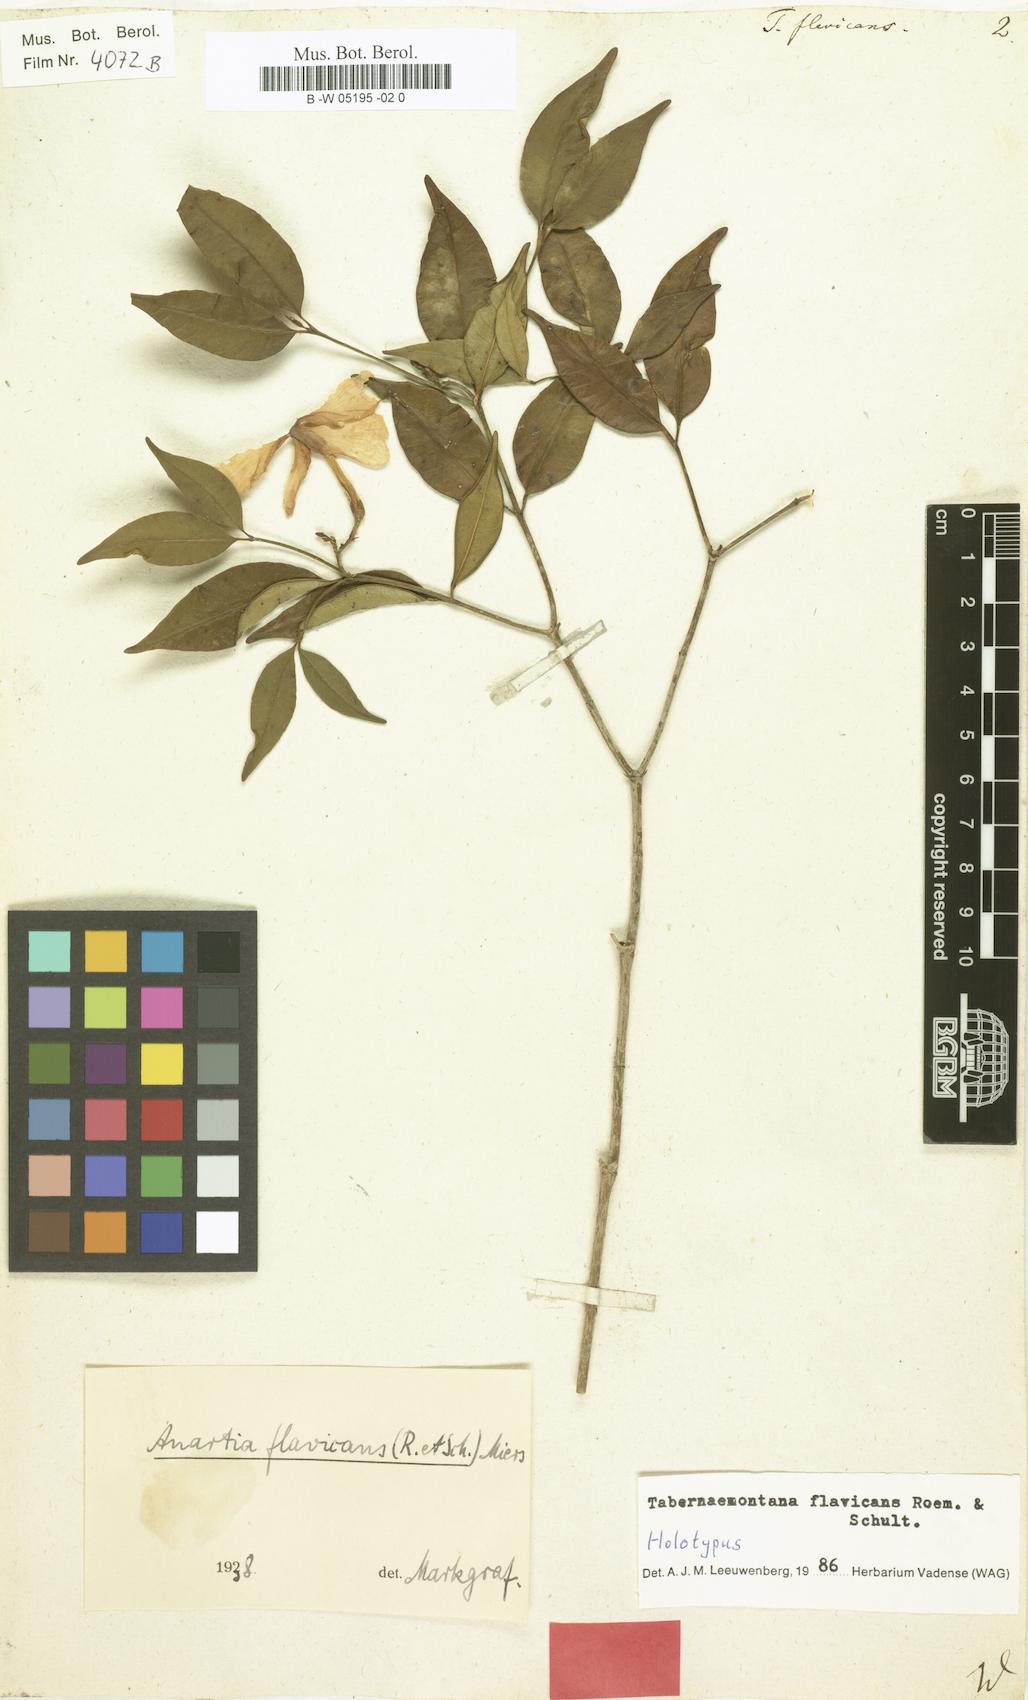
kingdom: Plantae
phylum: Tracheophyta
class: Magnoliopsida
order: Gentianales
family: Apocynaceae
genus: Tabernaemontana
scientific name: Tabernaemontana flavicans
